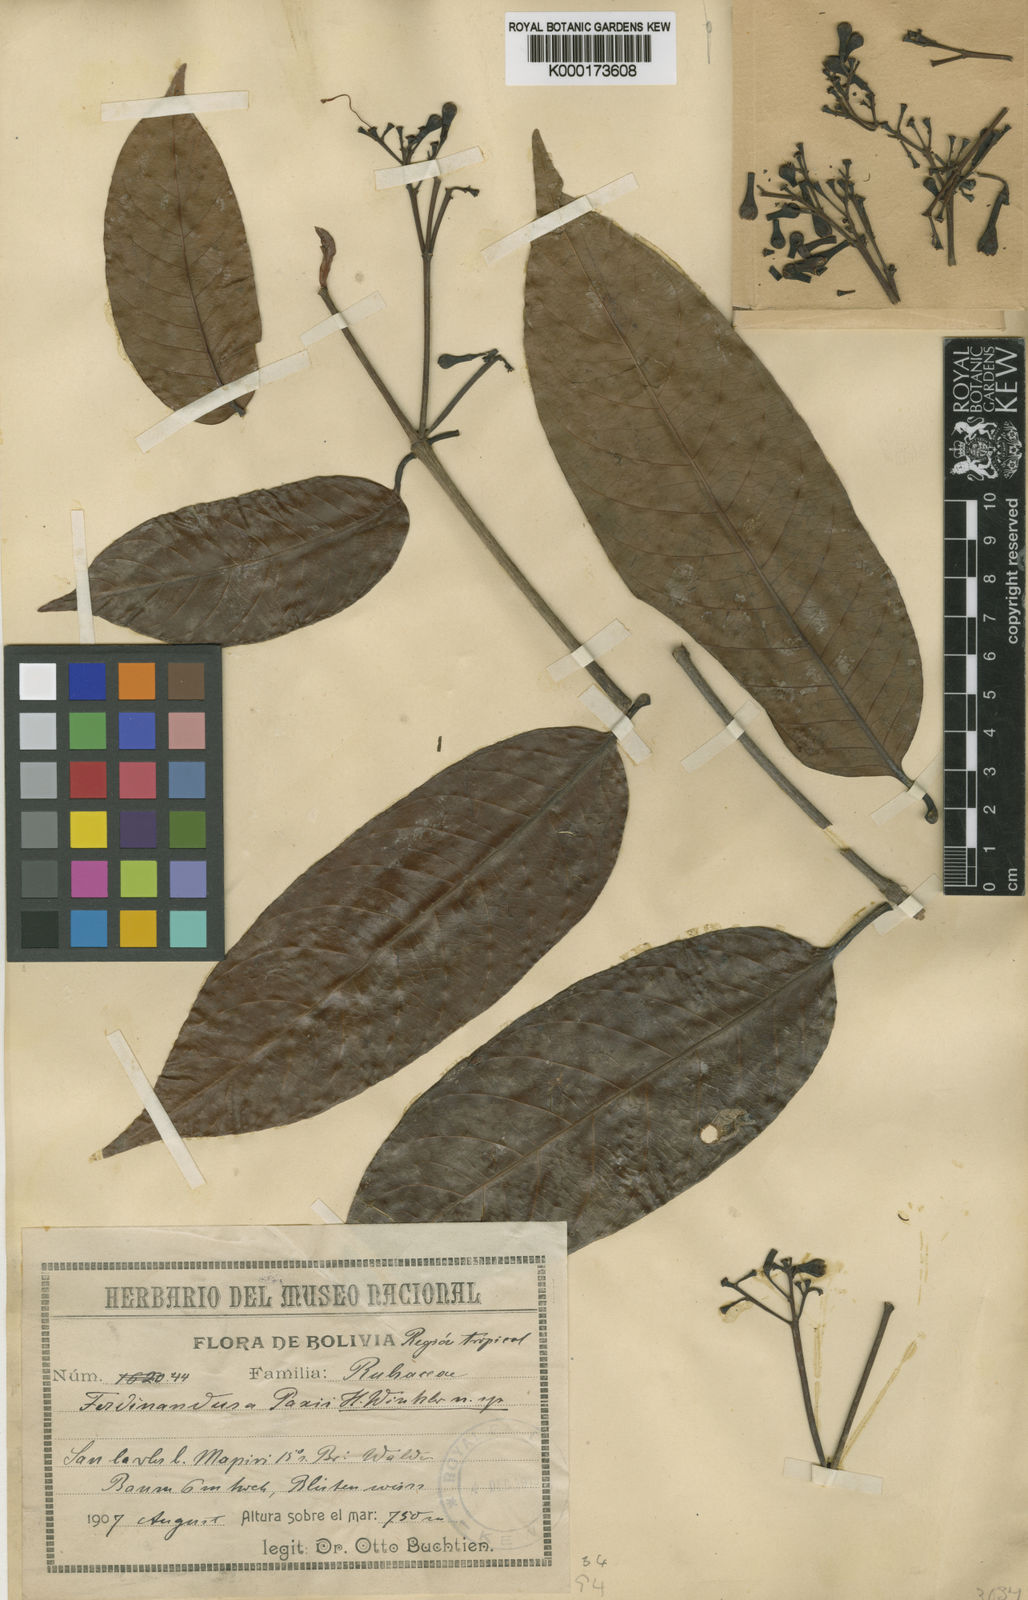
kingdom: Plantae
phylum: Tracheophyta
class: Magnoliopsida
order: Gentianales
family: Rubiaceae
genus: Ferdinandusa
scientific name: Ferdinandusa chlorantha
